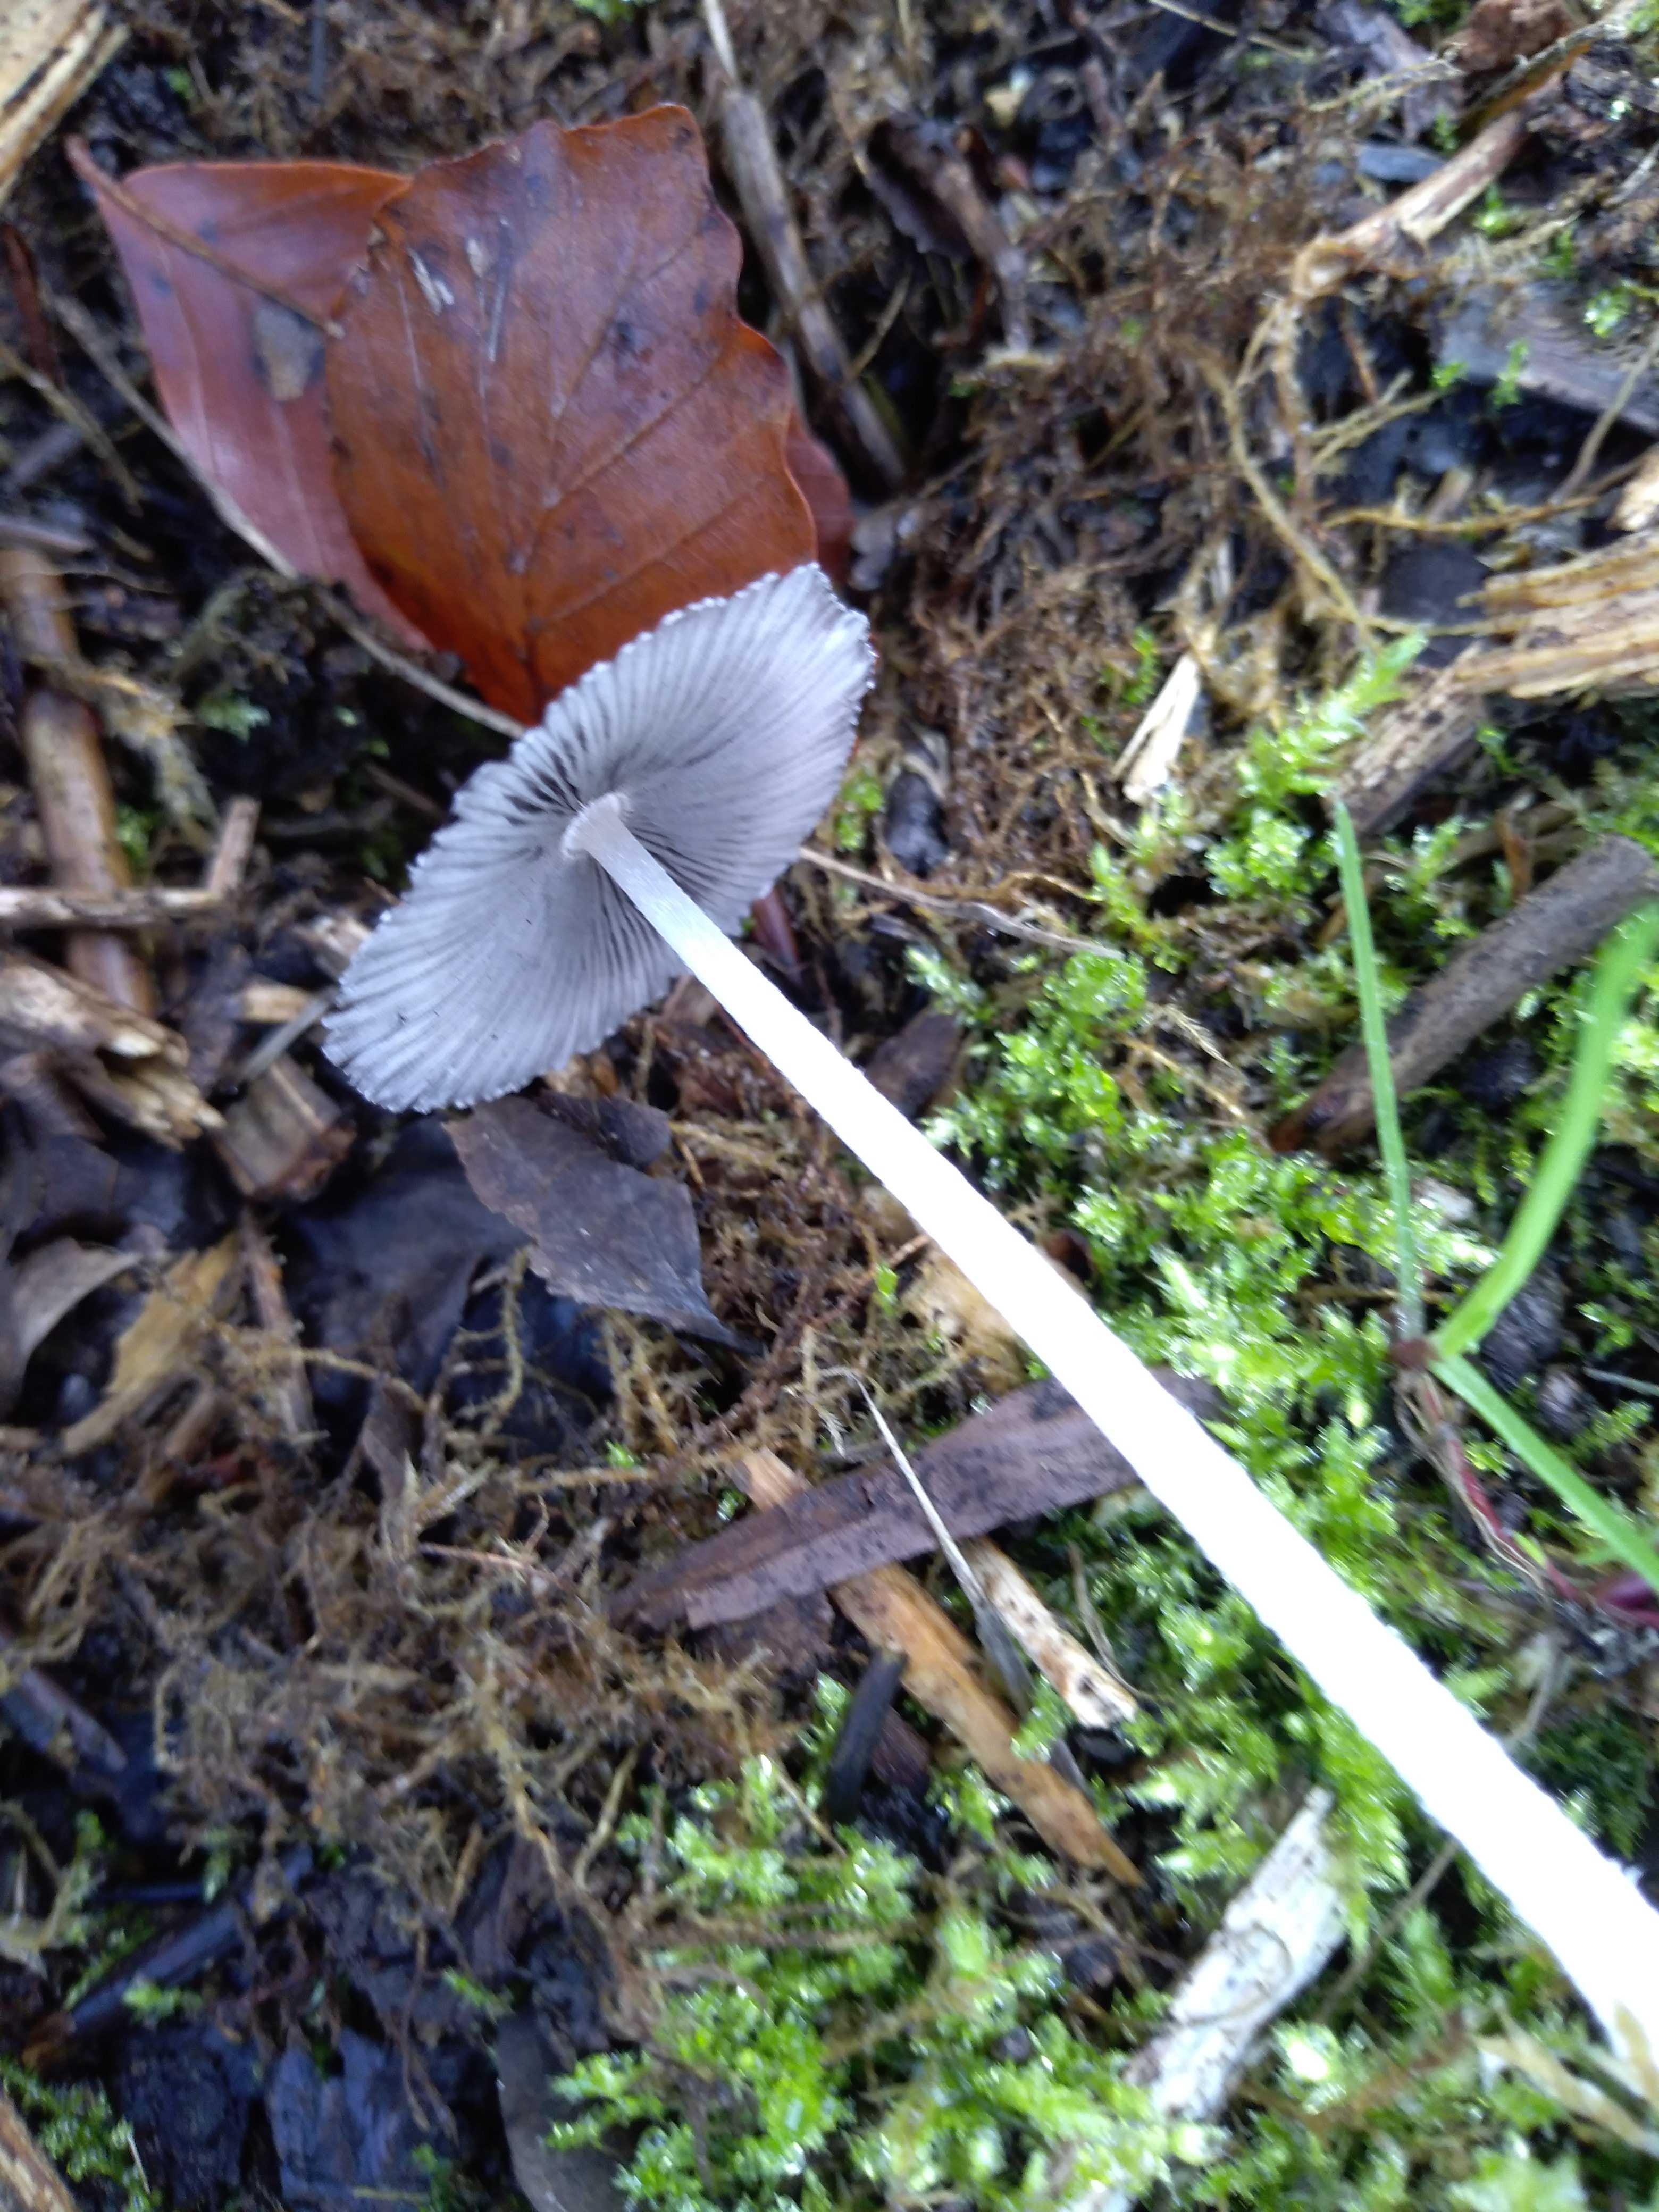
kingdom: Fungi
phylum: Basidiomycota
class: Agaricomycetes
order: Agaricales
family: Psathyrellaceae
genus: Coprinopsis
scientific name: Coprinopsis
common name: blækhat
